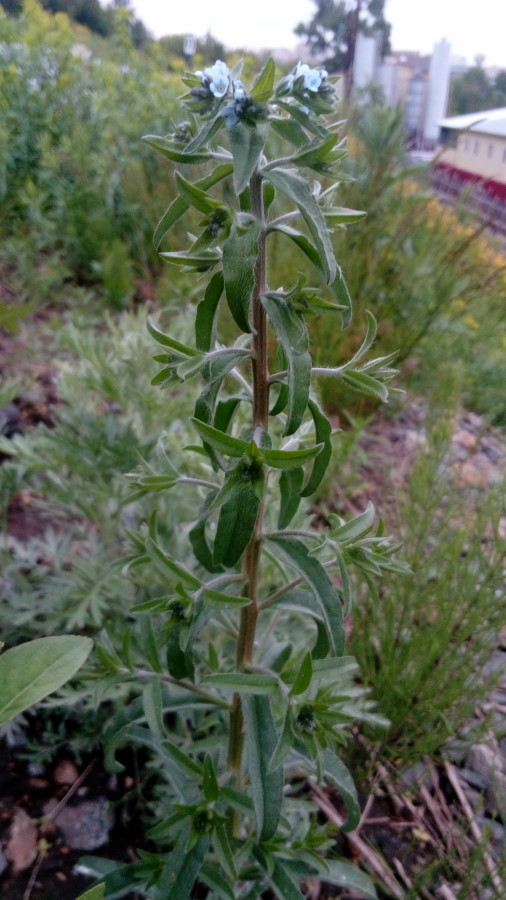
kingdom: Plantae
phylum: Tracheophyta
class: Magnoliopsida
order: Boraginales
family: Boraginaceae
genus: Lappula
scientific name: Lappula squarrosa
